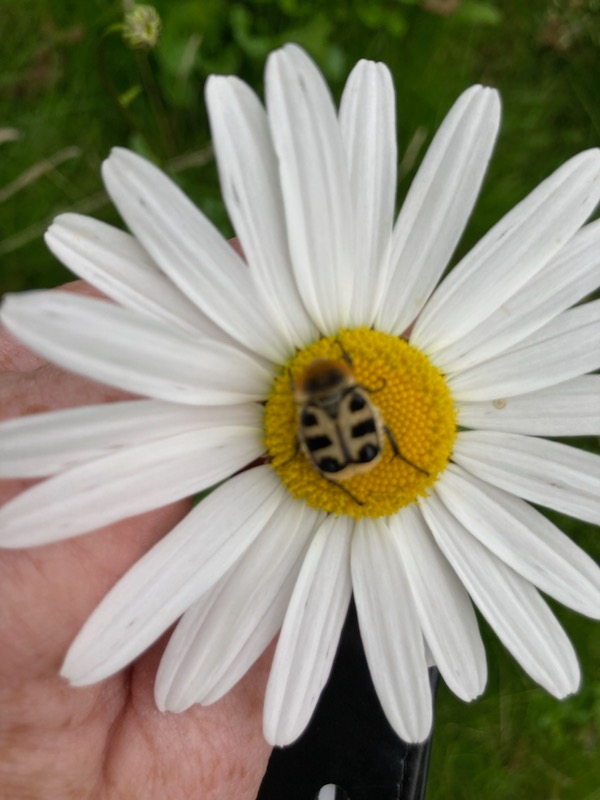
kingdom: Animalia
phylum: Arthropoda
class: Insecta
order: Coleoptera
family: Scarabaeidae
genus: Trichius
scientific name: Trichius gallicus
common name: Lille humlebille
